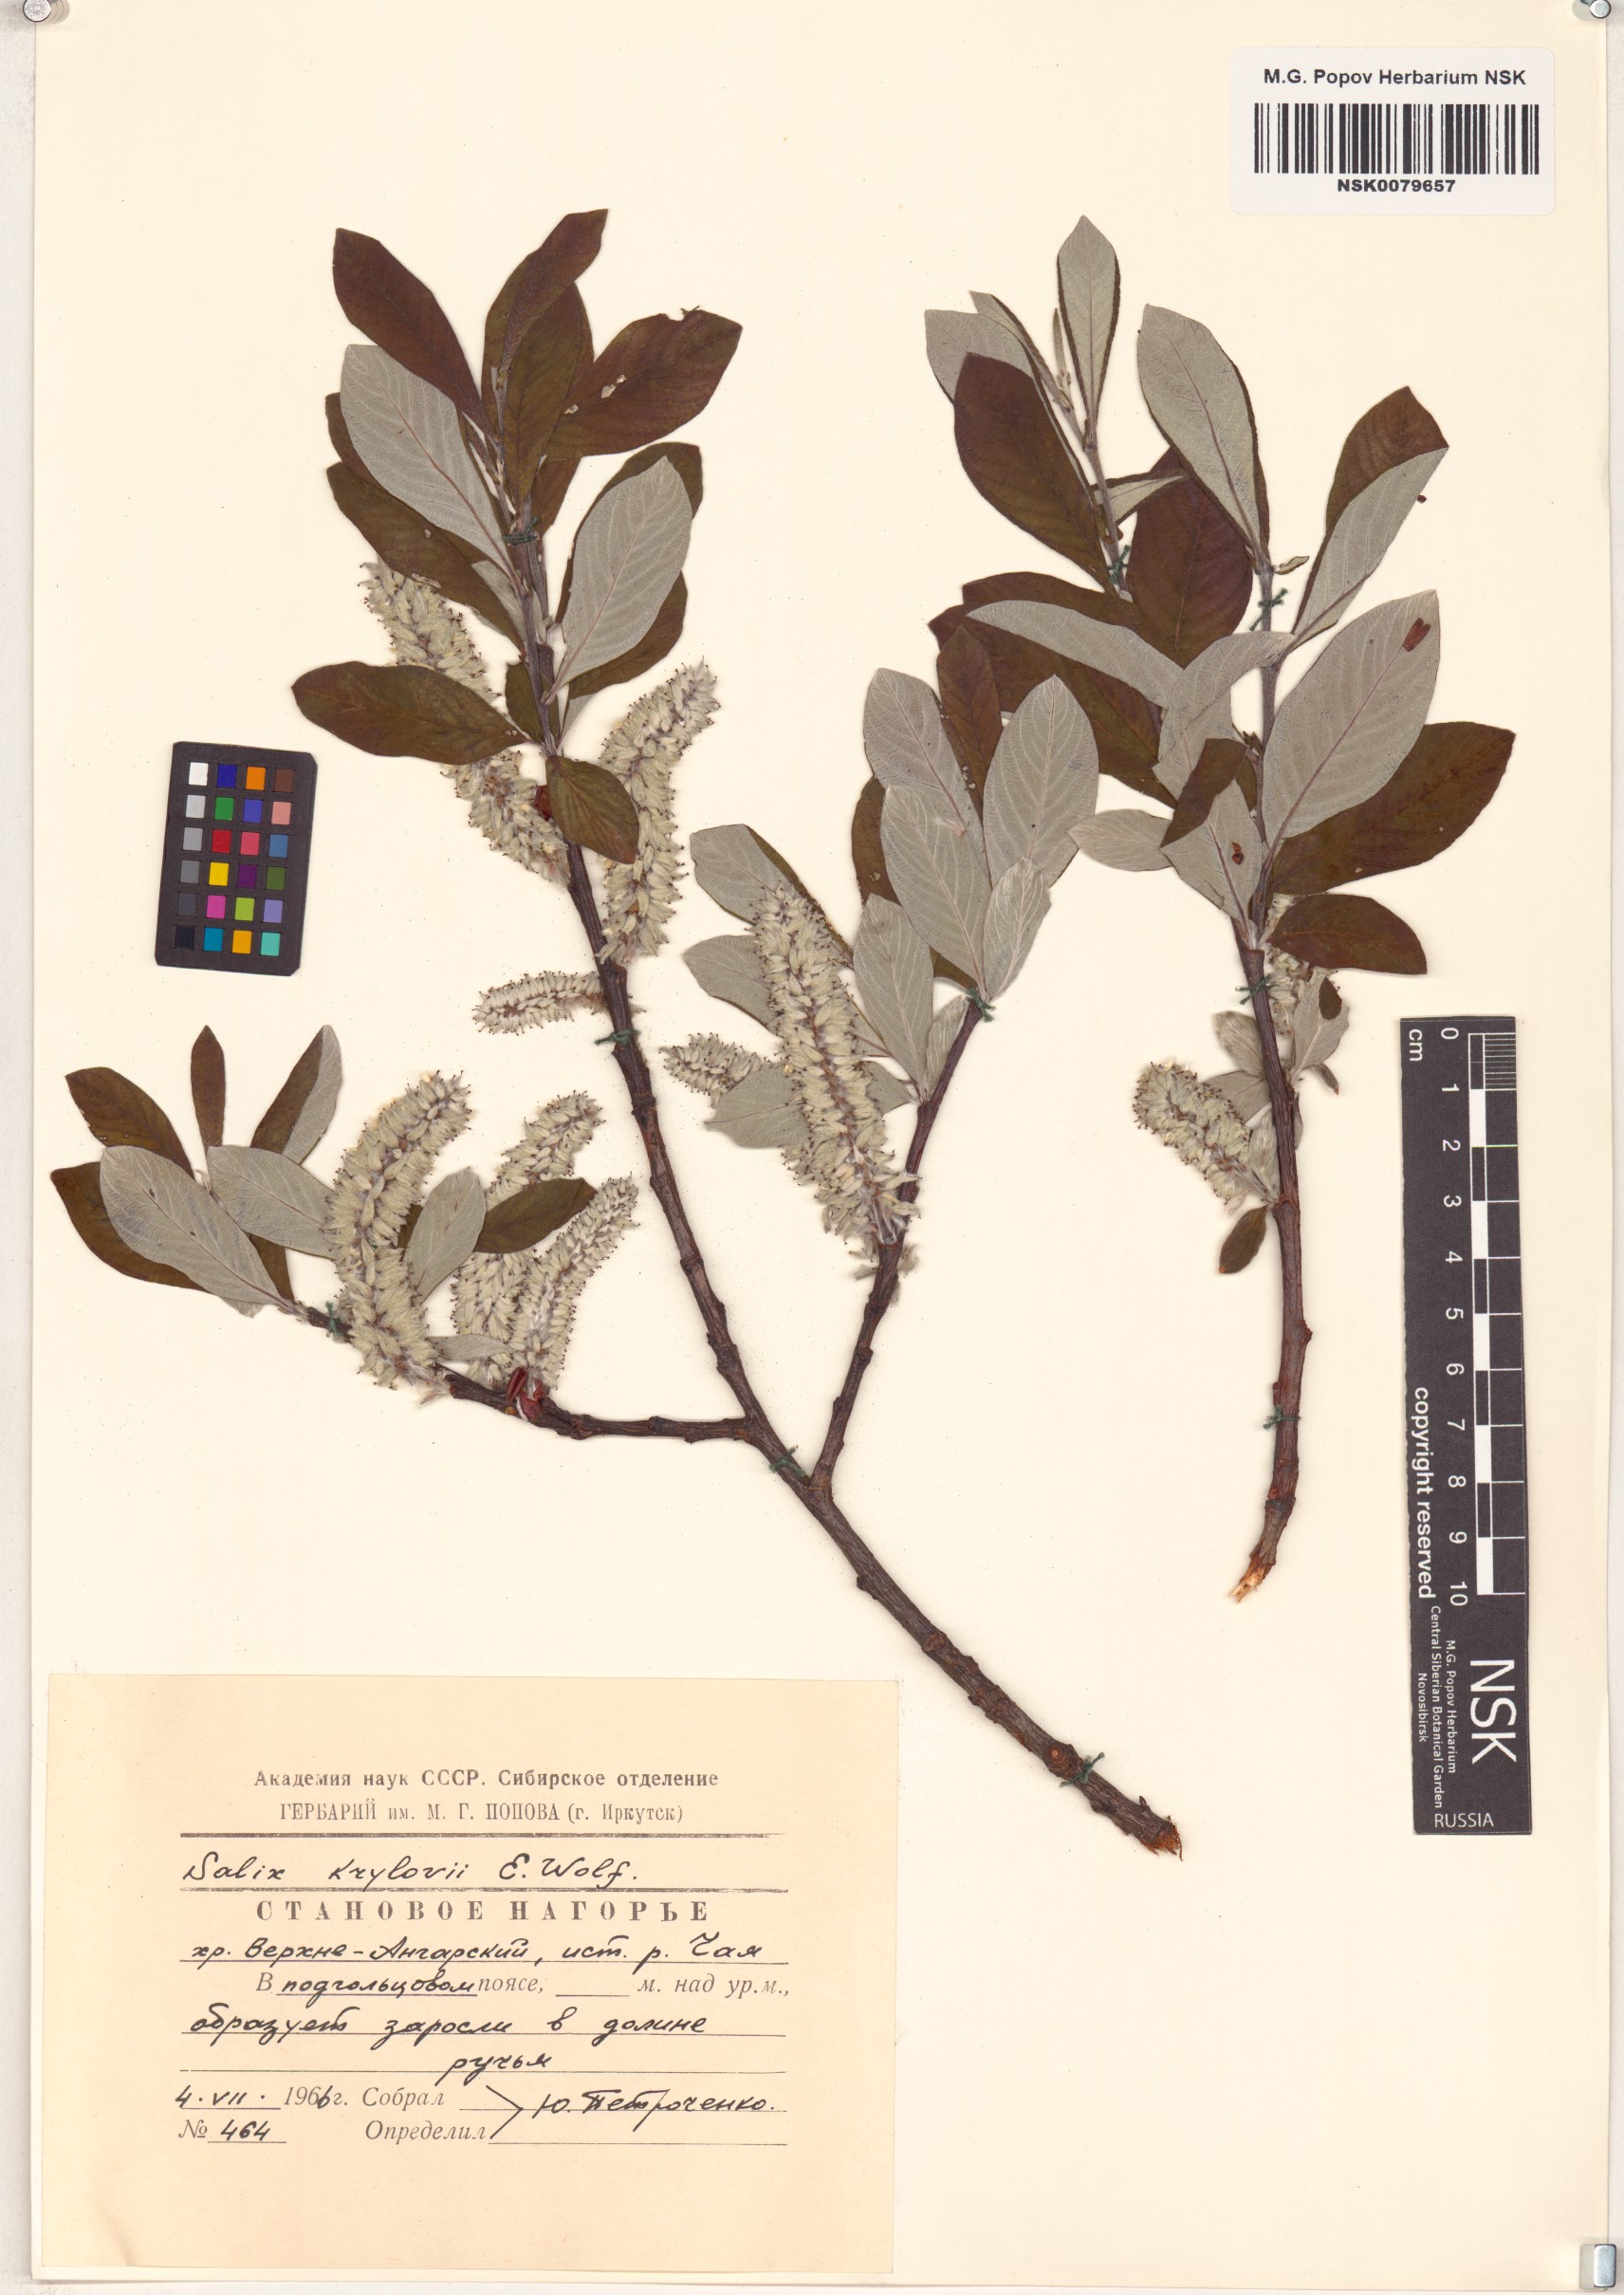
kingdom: Plantae
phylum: Tracheophyta
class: Magnoliopsida
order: Malpighiales
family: Salicaceae
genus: Salix
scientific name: Salix krylovii
